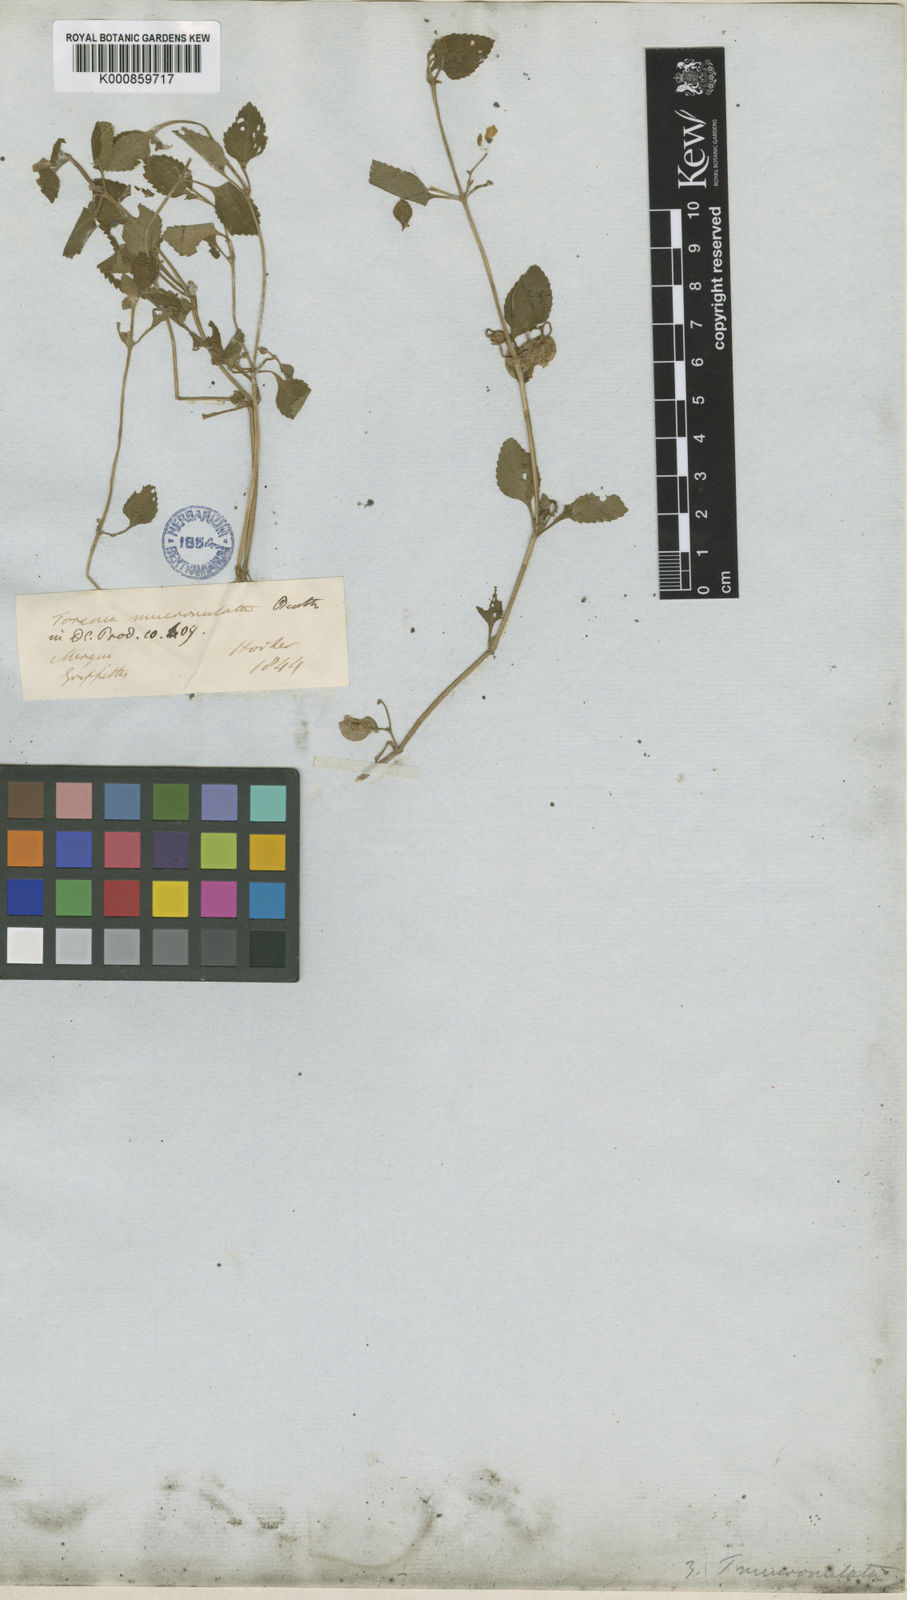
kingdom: Plantae
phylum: Tracheophyta
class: Magnoliopsida
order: Lamiales
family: Linderniaceae
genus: Legazpia
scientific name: Legazpia polygonoides
